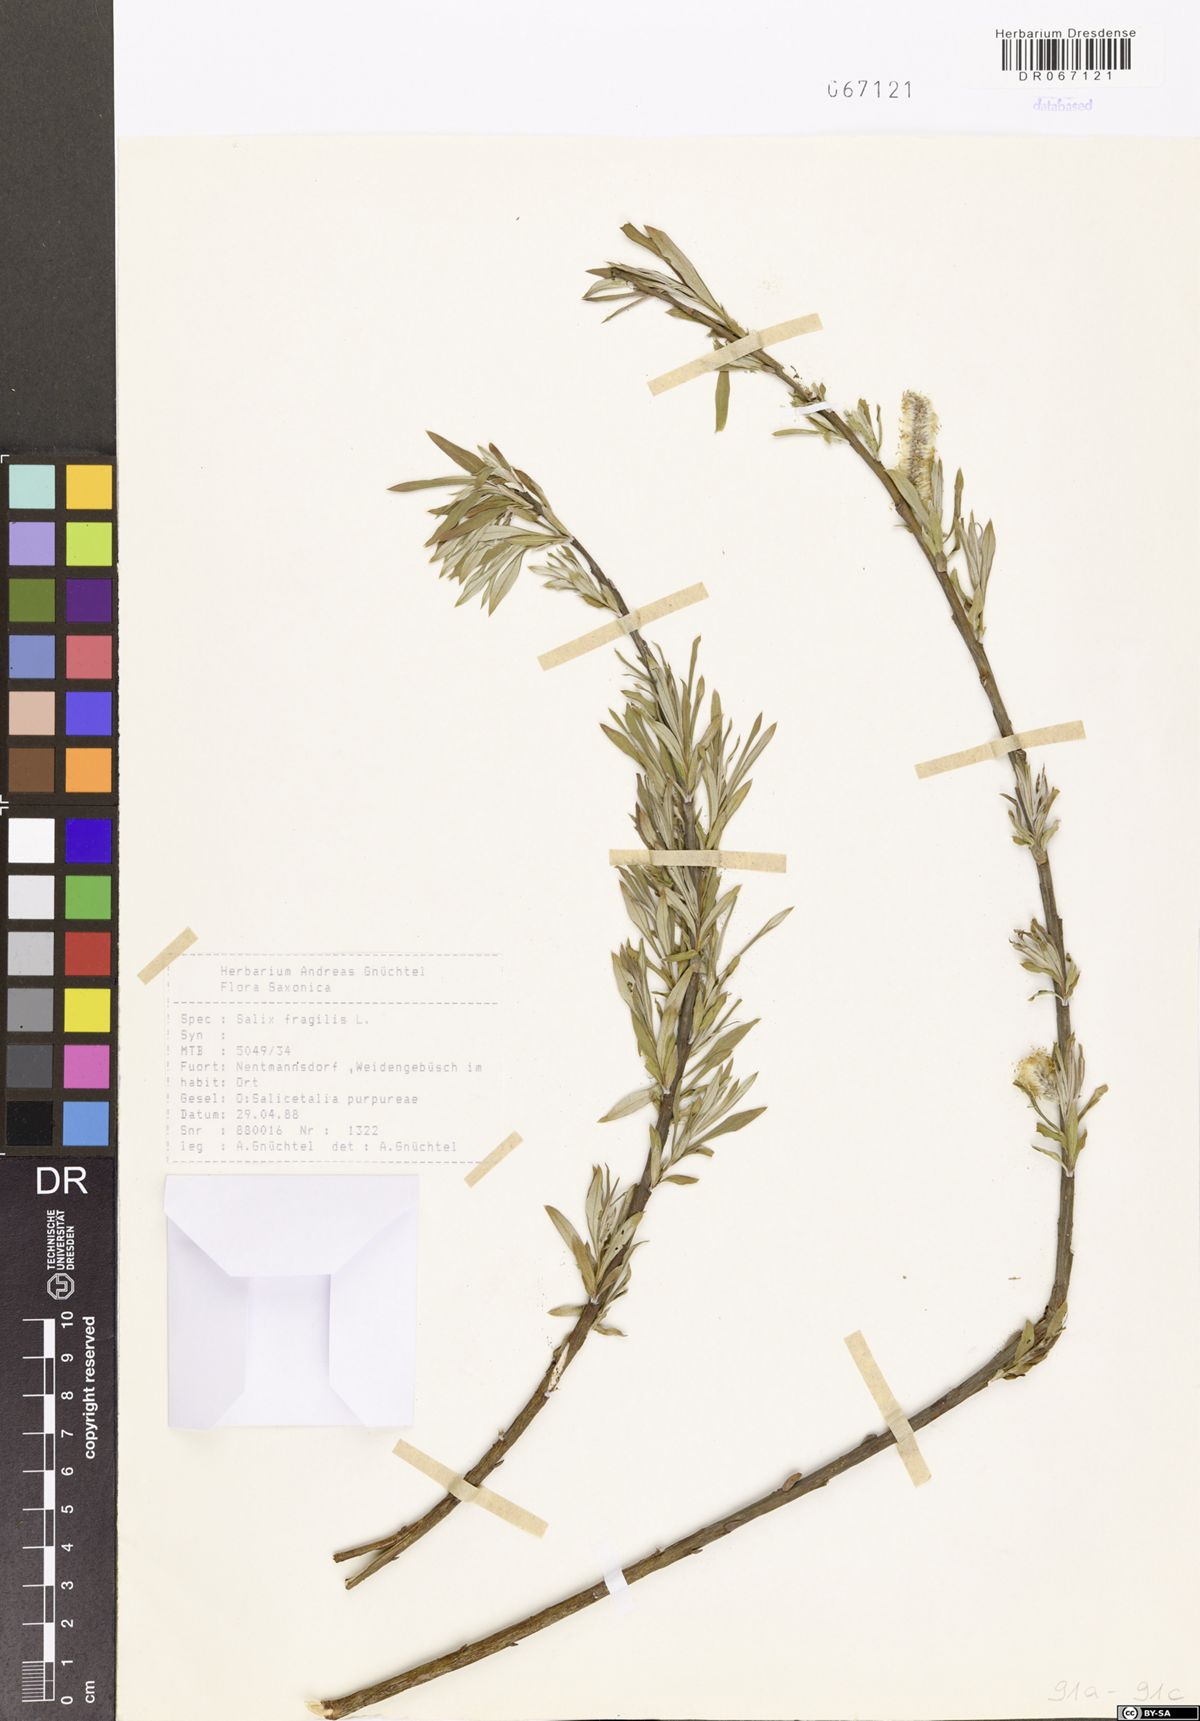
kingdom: Plantae
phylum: Tracheophyta
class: Magnoliopsida
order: Malpighiales
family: Salicaceae
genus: Salix
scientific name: Salix fragilis
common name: Crack willow
